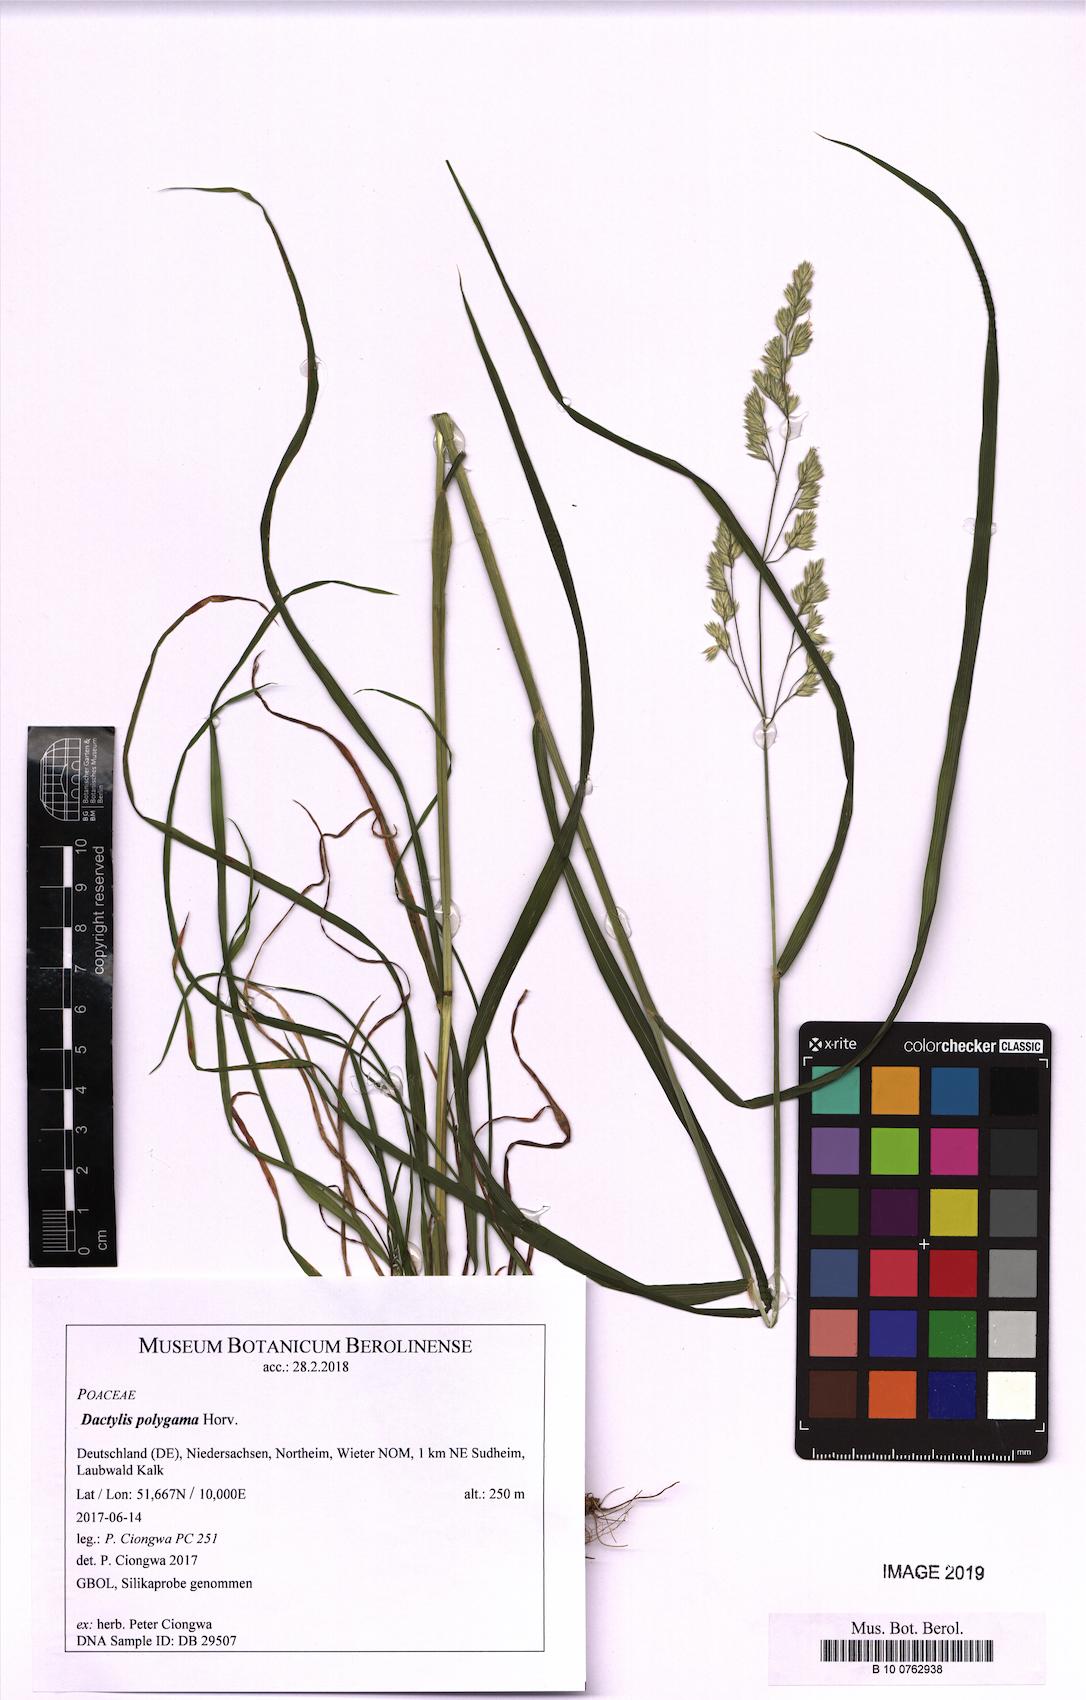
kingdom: Plantae
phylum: Tracheophyta
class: Liliopsida
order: Poales
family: Poaceae
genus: Dactylis
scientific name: Dactylis glomerata
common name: Orchardgrass
